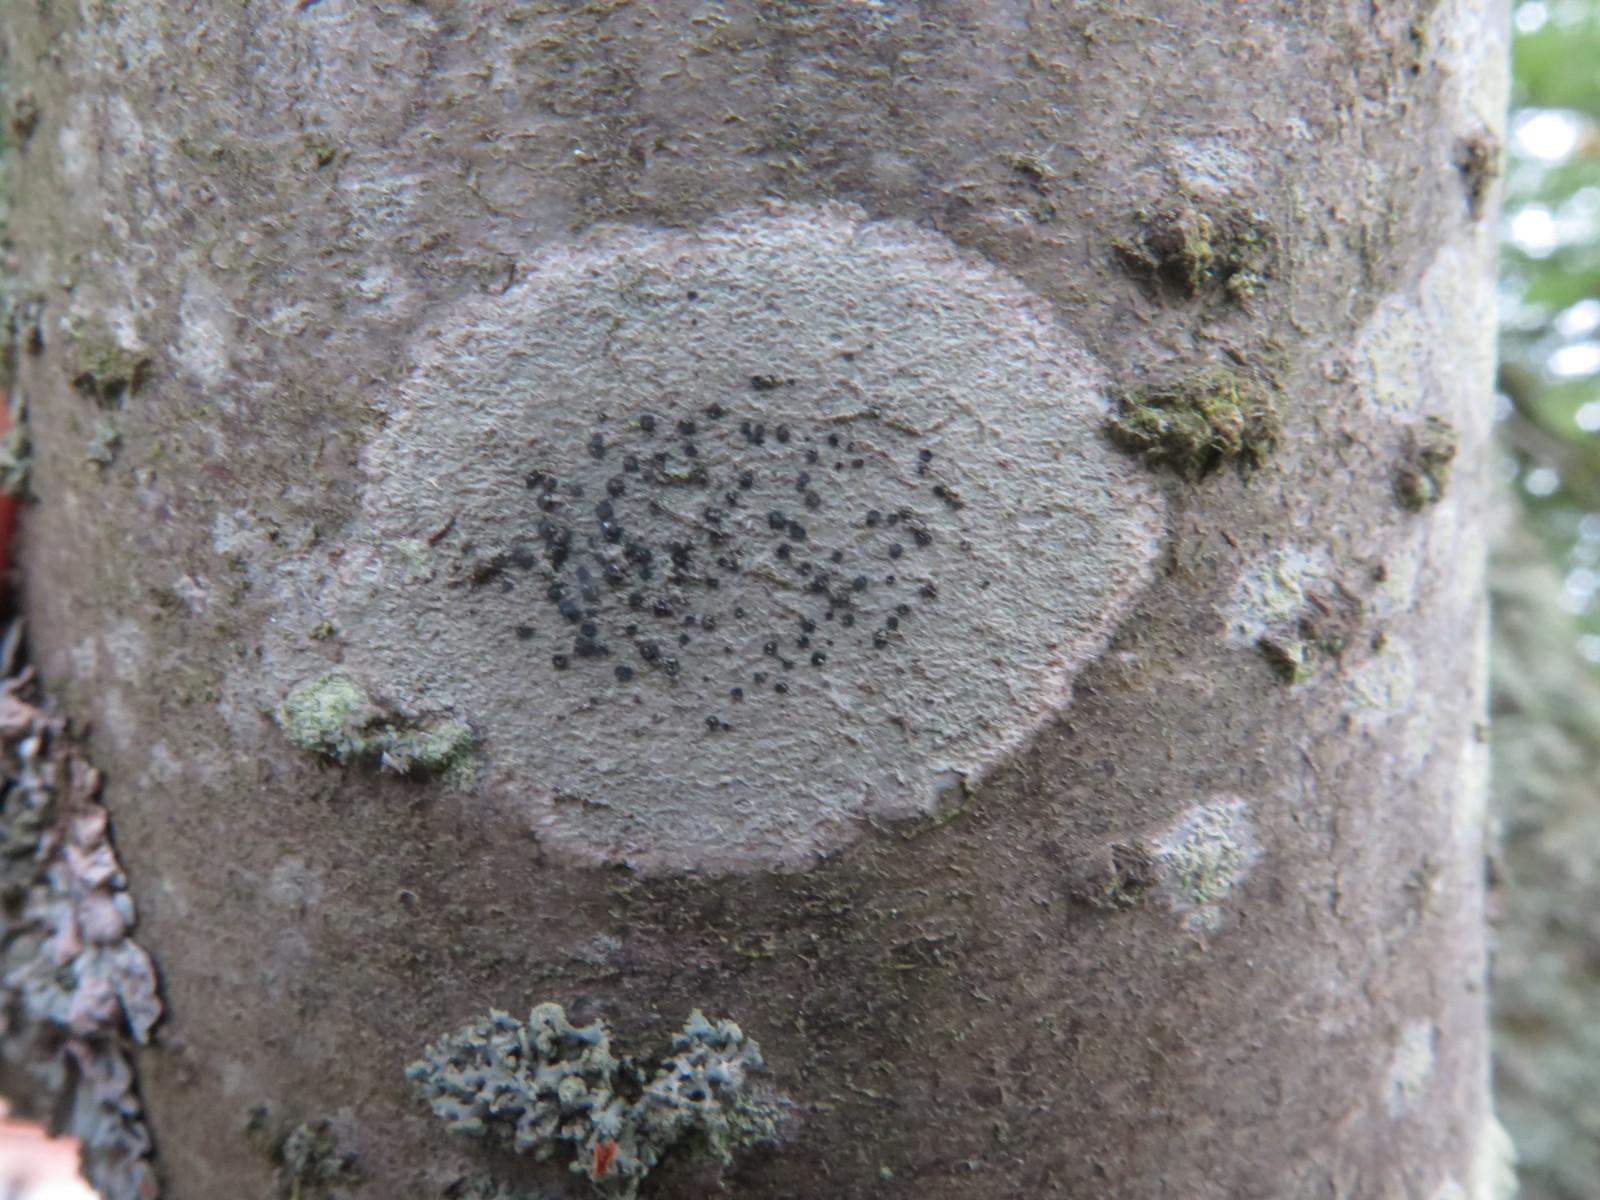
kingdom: Fungi
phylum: Ascomycota
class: Lecanoromycetes
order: Lecanorales
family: Lecanoraceae
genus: Lecidella
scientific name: Lecidella elaeochroma
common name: grågrøn skivelav
